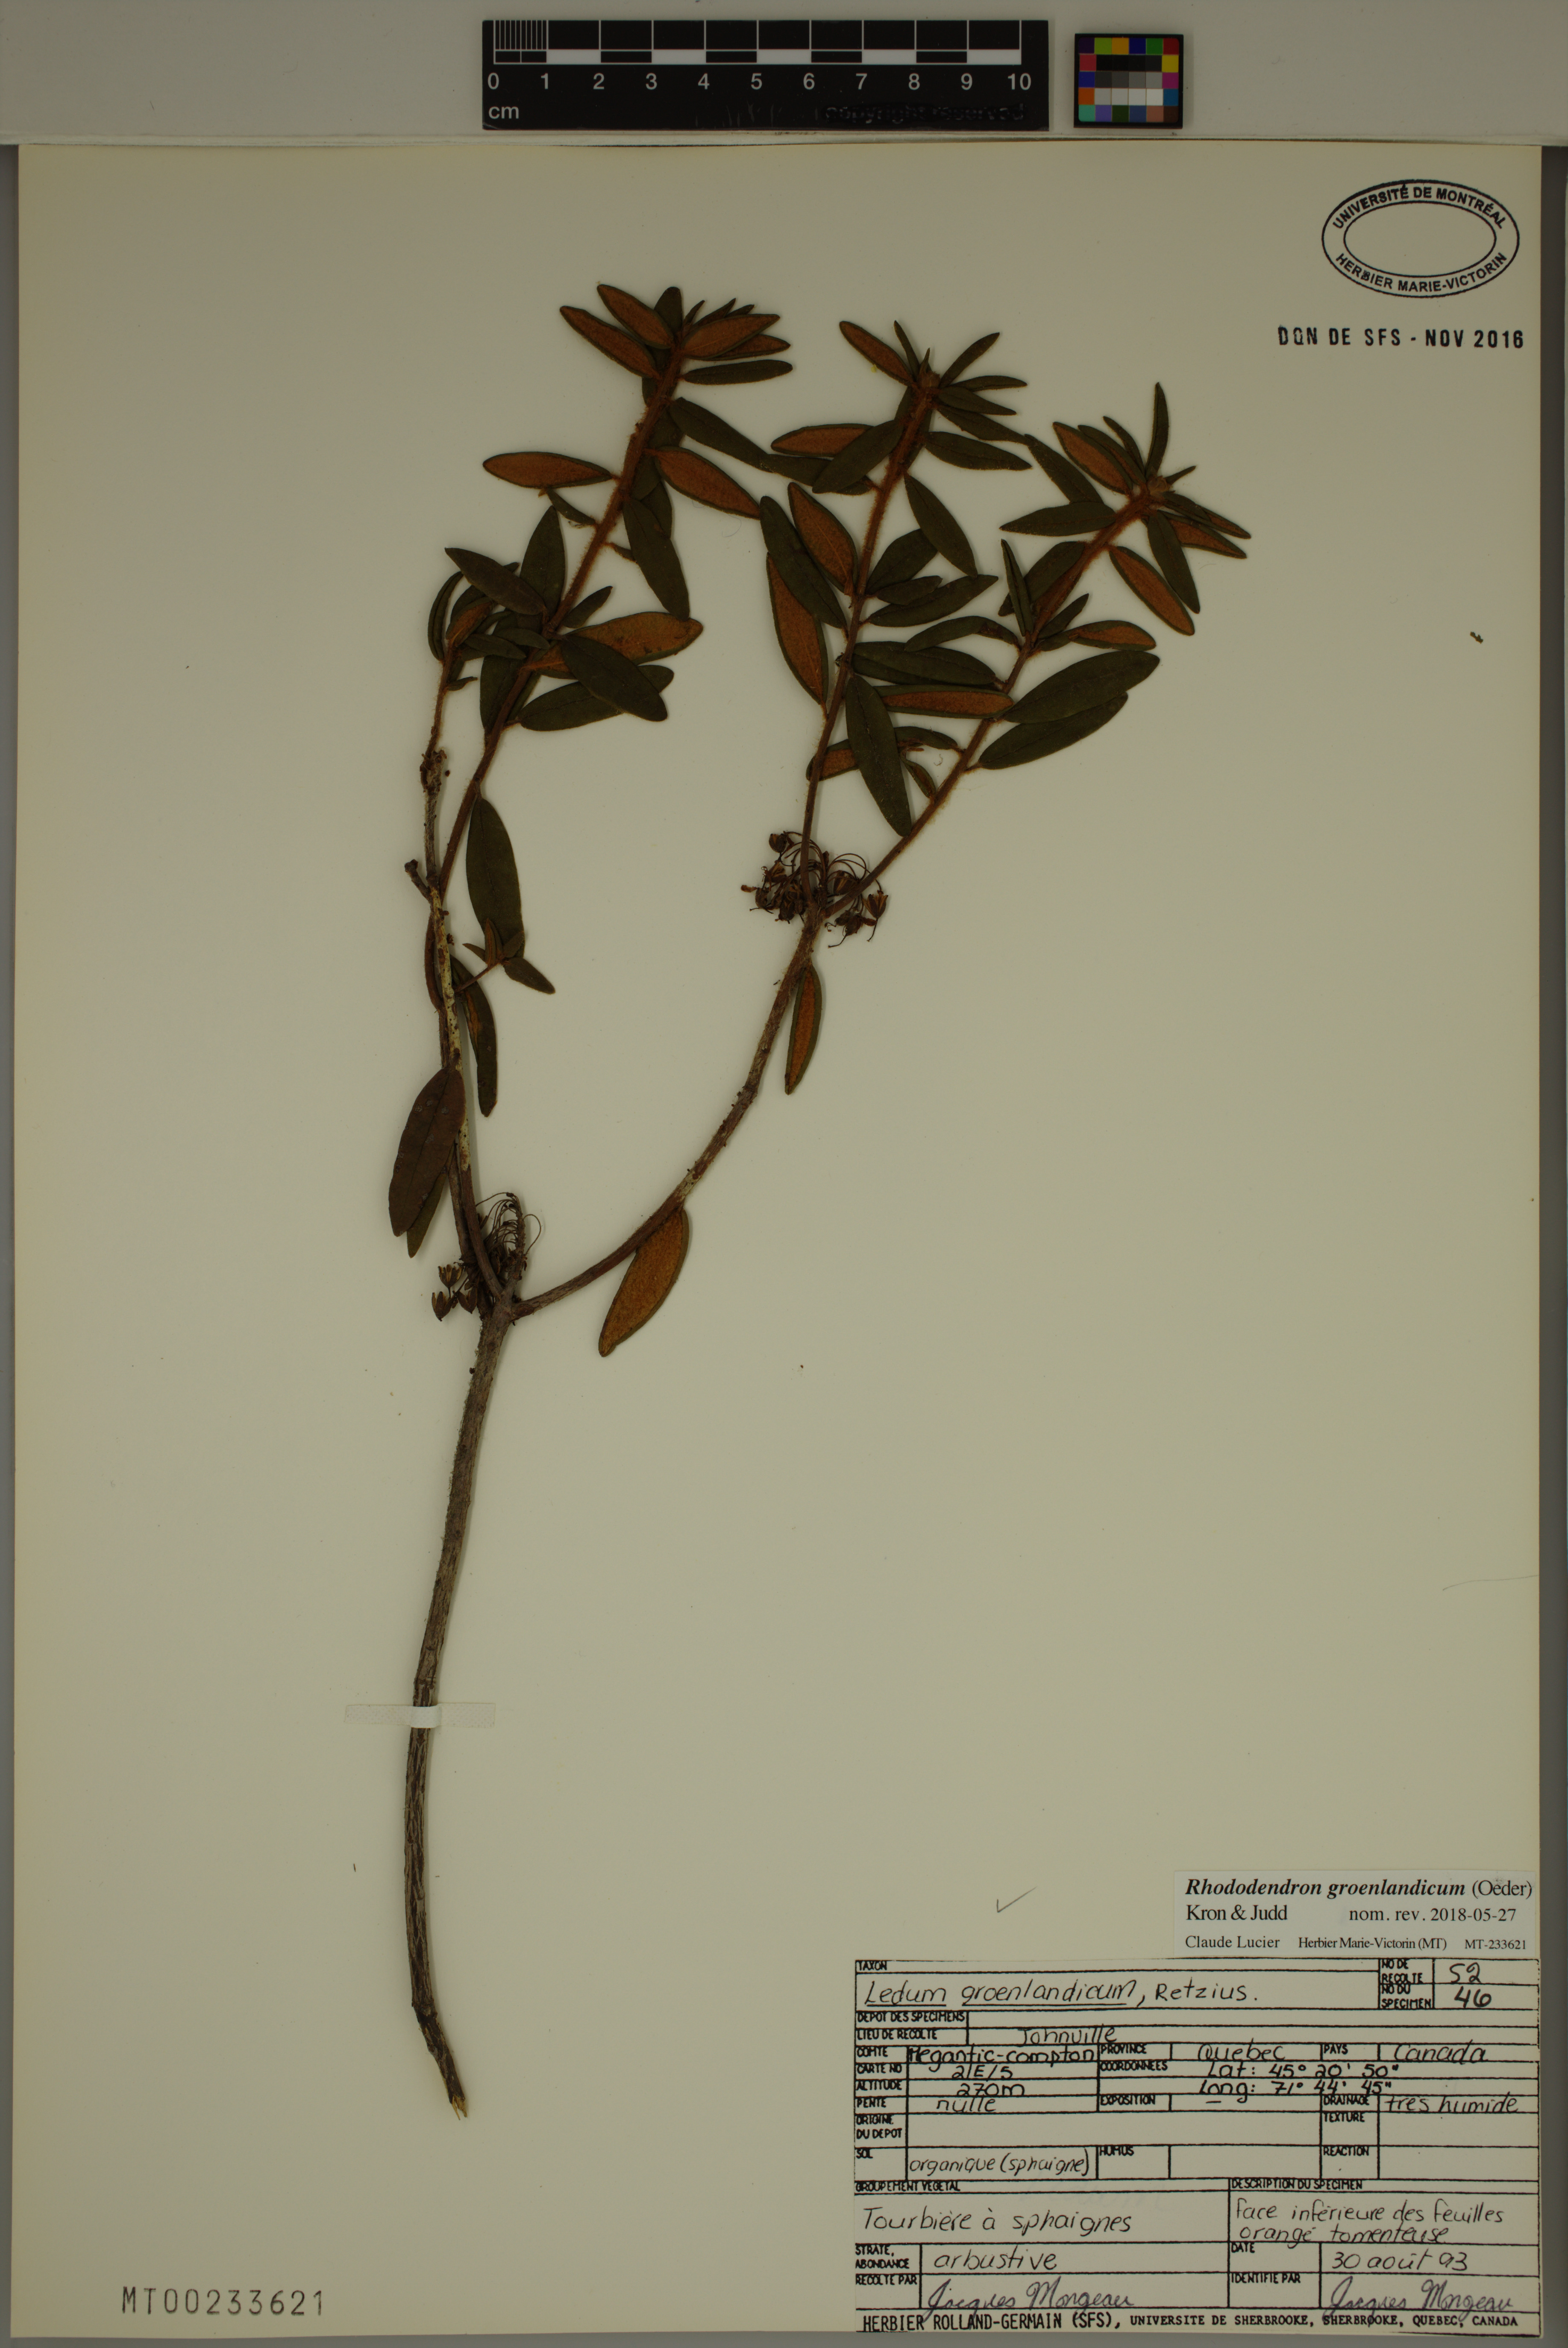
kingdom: Plantae
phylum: Tracheophyta
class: Magnoliopsida
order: Ericales
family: Ericaceae
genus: Rhododendron
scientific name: Rhododendron groenlandicum
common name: Bog labrador tea
